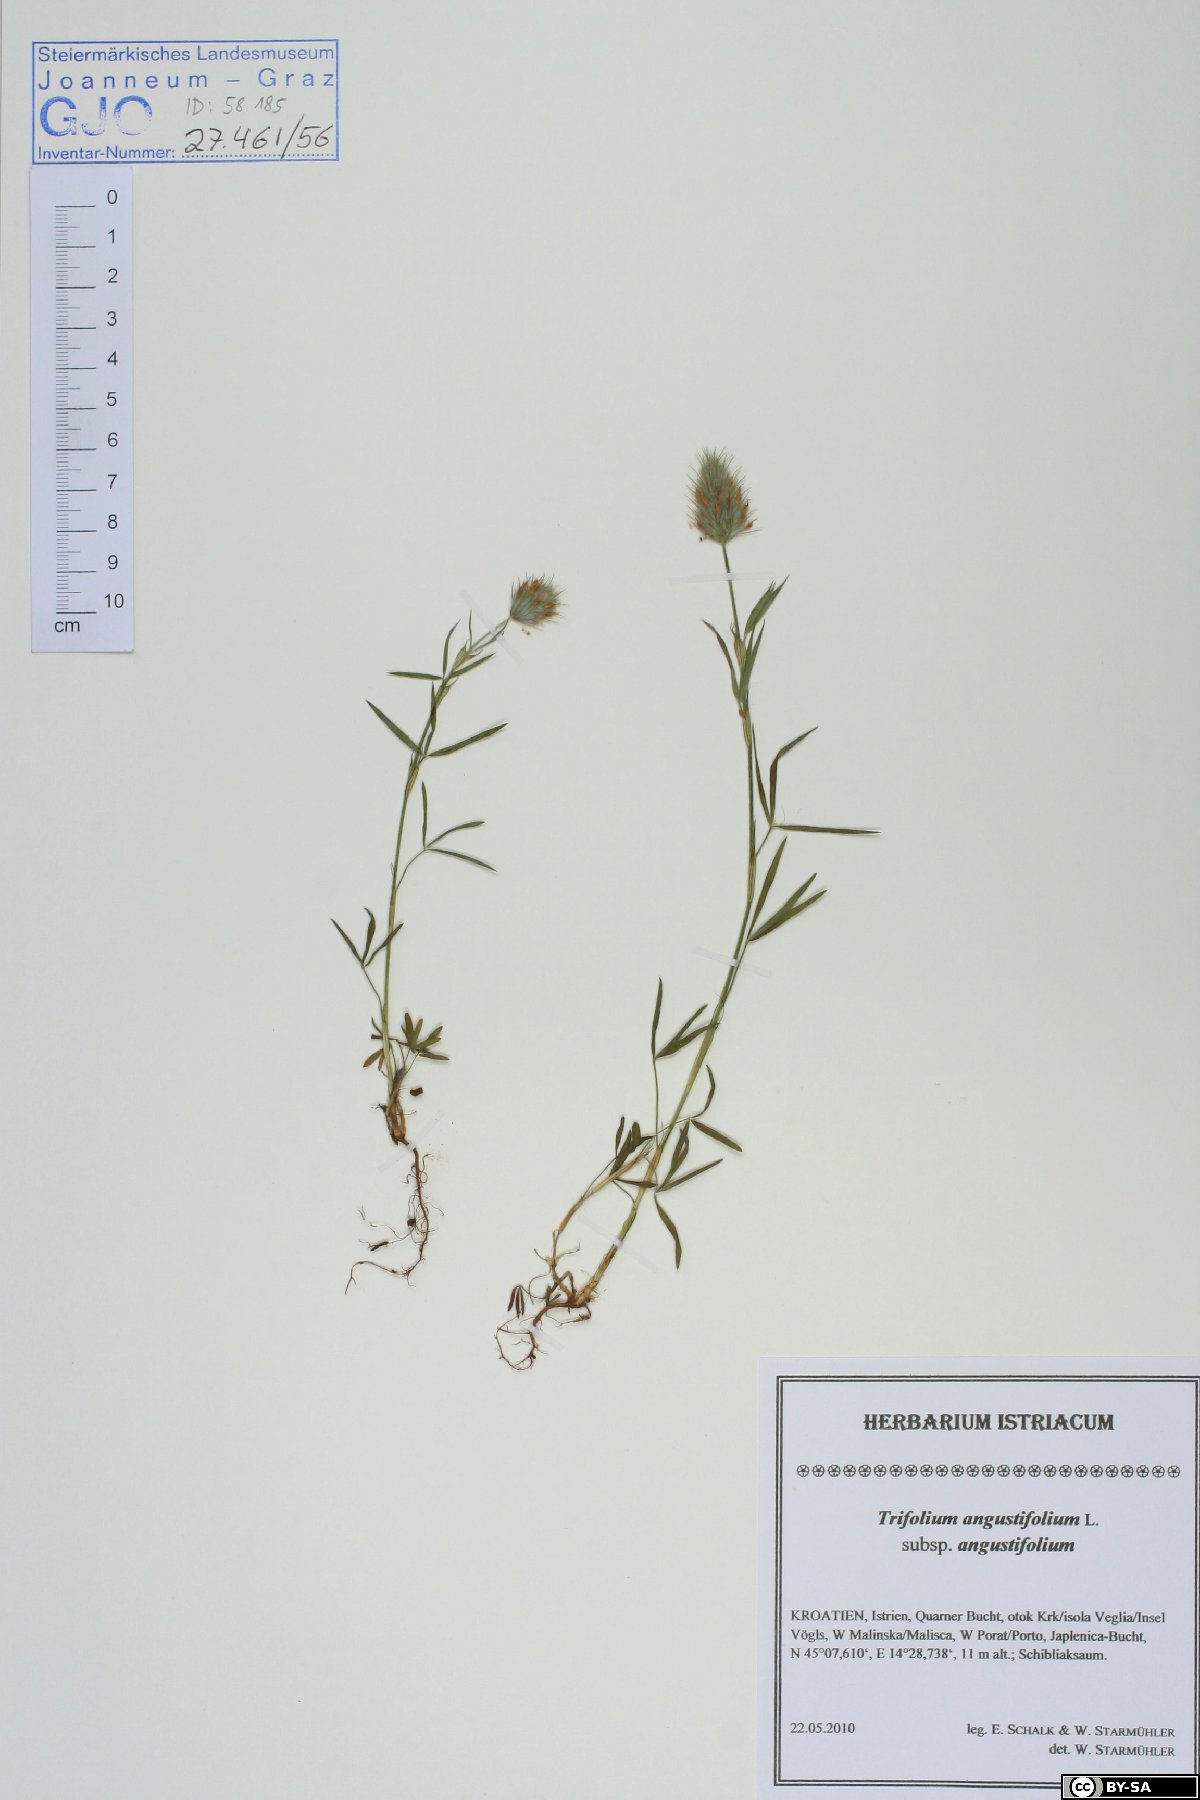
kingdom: Plantae
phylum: Tracheophyta
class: Magnoliopsida
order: Fabales
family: Fabaceae
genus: Trifolium
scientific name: Trifolium angustifolium
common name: Narrow clover
